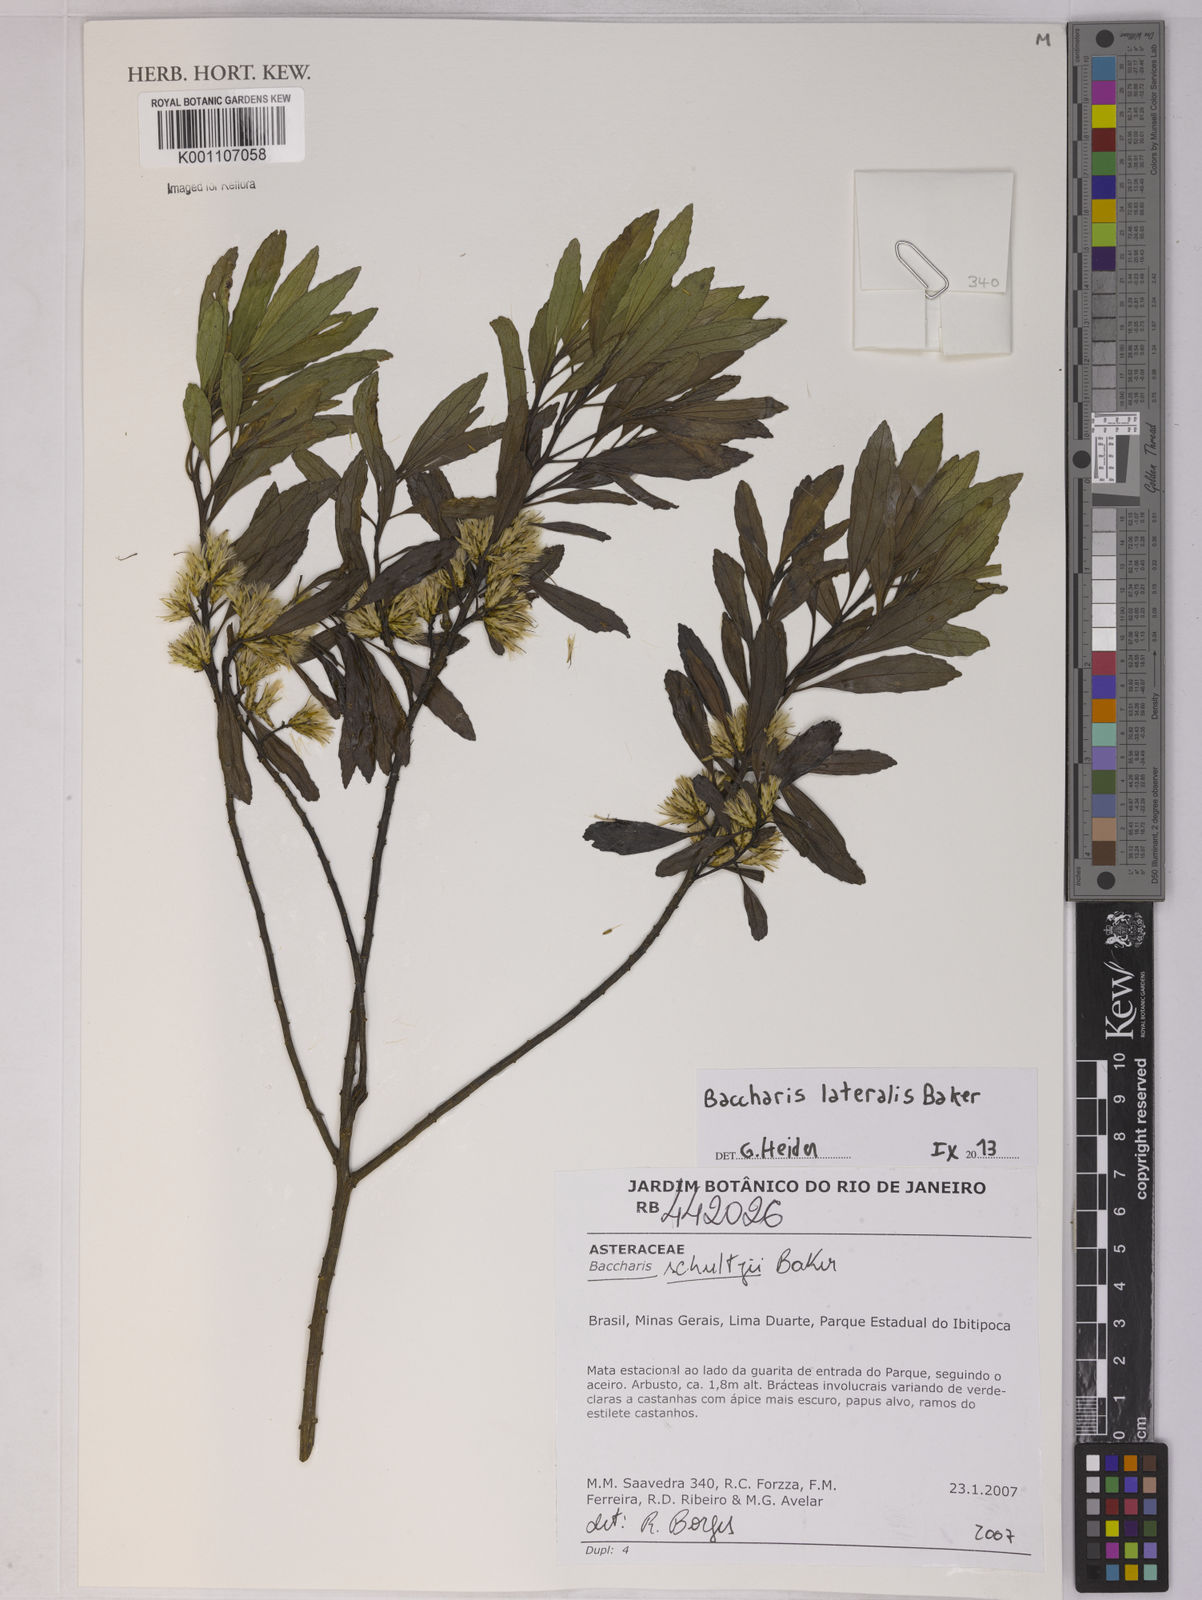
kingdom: Plantae
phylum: Tracheophyta
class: Magnoliopsida
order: Asterales
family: Asteraceae
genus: Baccharis
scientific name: Baccharis lateralis
